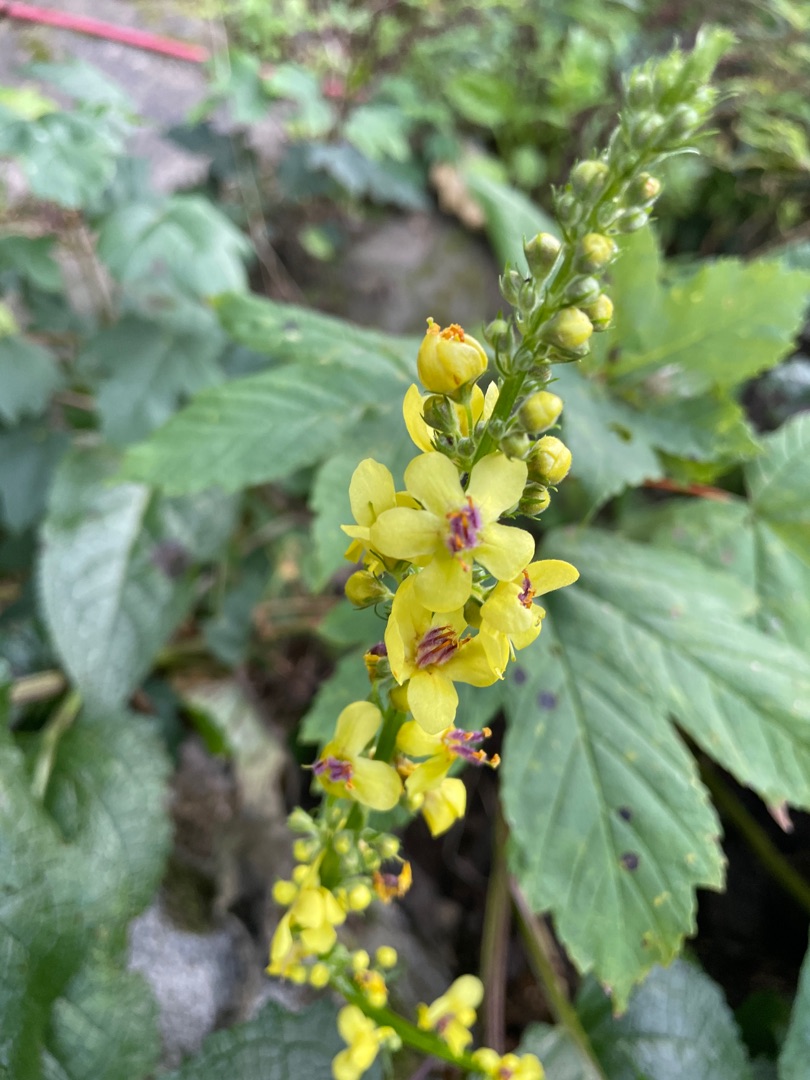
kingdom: Plantae
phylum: Tracheophyta
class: Magnoliopsida
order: Lamiales
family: Scrophulariaceae
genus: Verbascum
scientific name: Verbascum nigrum
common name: Mørk kongelys
